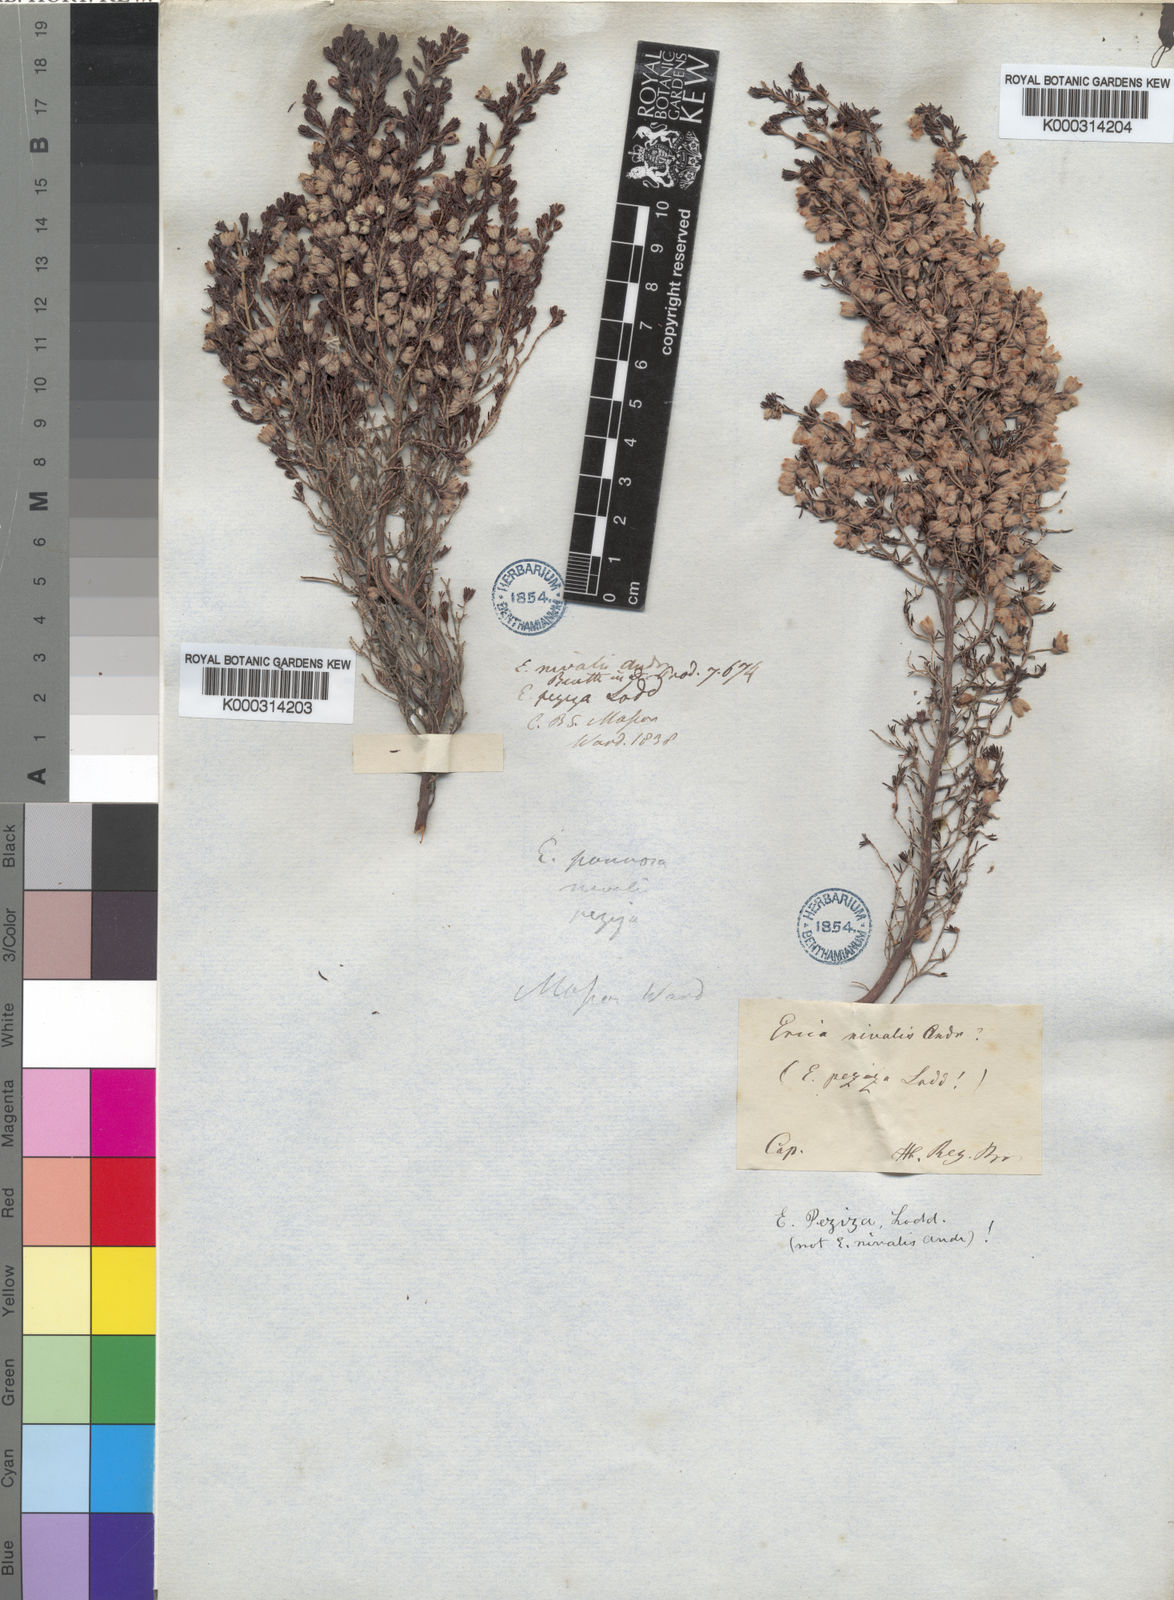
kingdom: Plantae
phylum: Tracheophyta
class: Magnoliopsida
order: Ericales
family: Ericaceae
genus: Erica
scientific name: Erica
